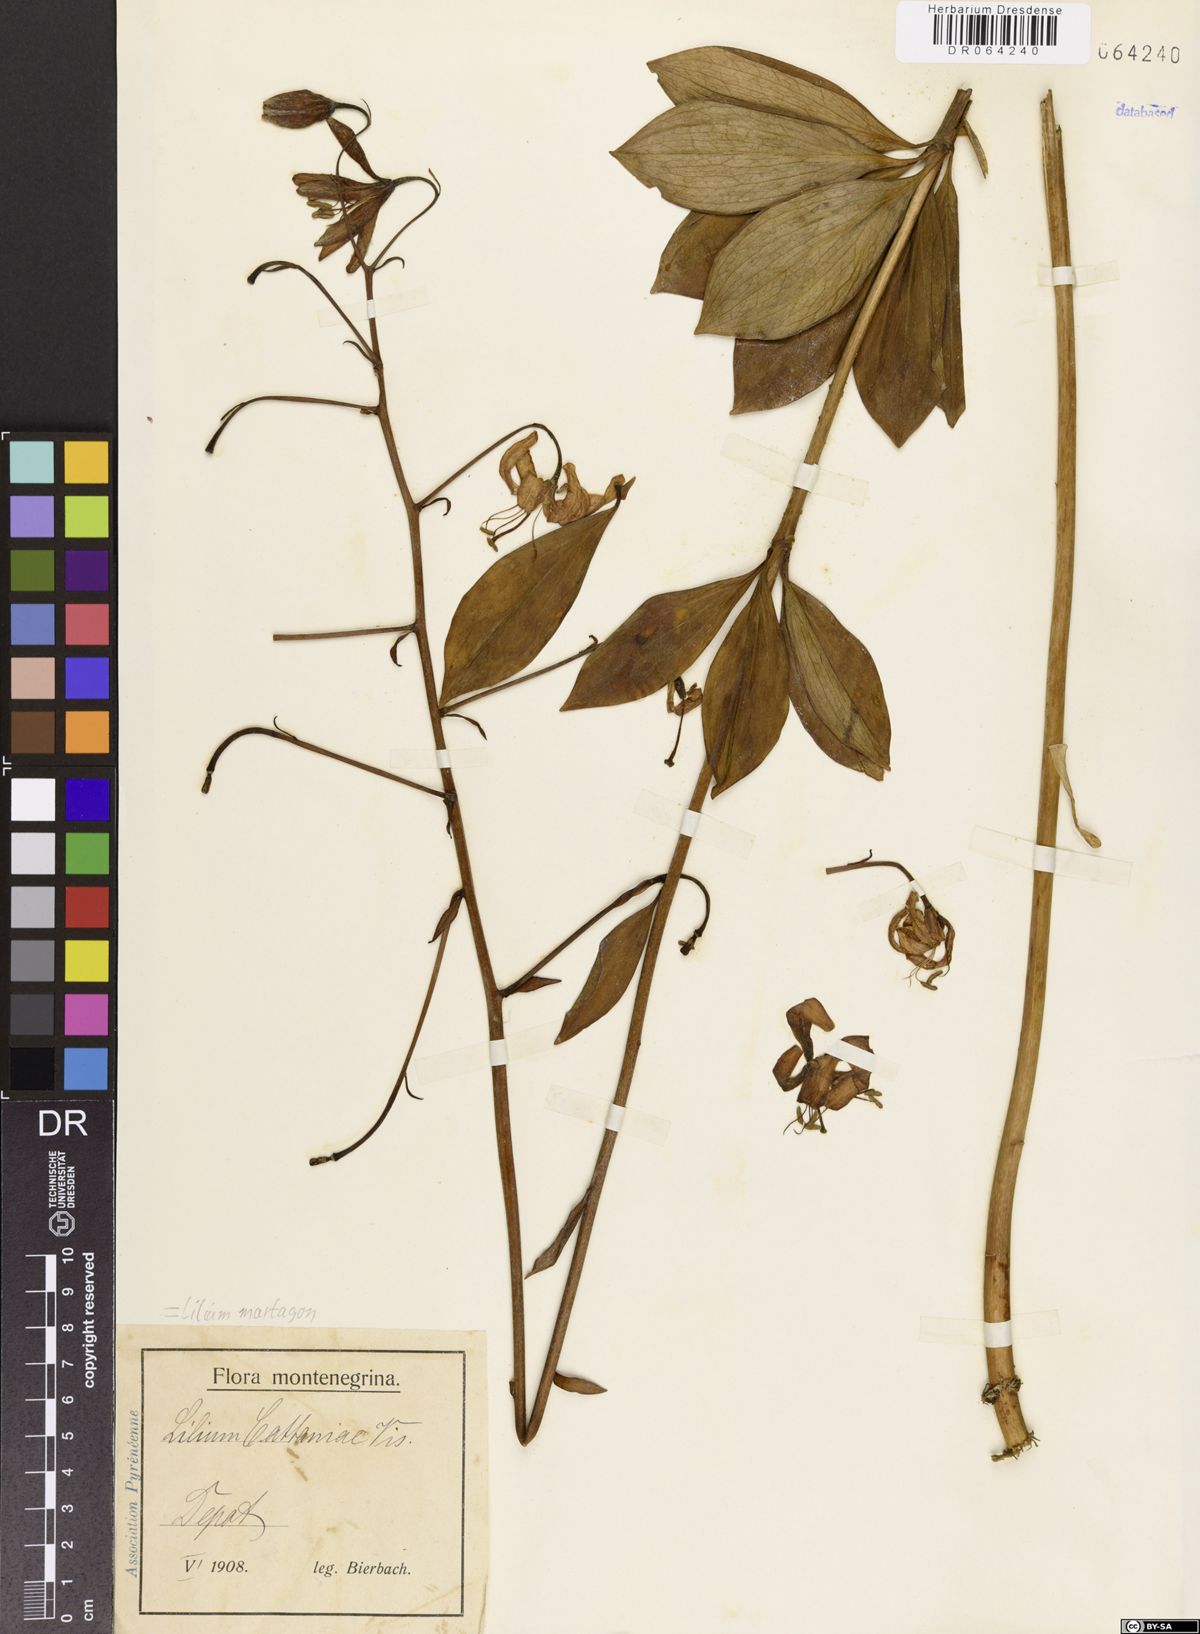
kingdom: Plantae
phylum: Tracheophyta
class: Liliopsida
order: Liliales
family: Liliaceae
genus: Lilium
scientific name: Lilium martagon
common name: Martagon lily
